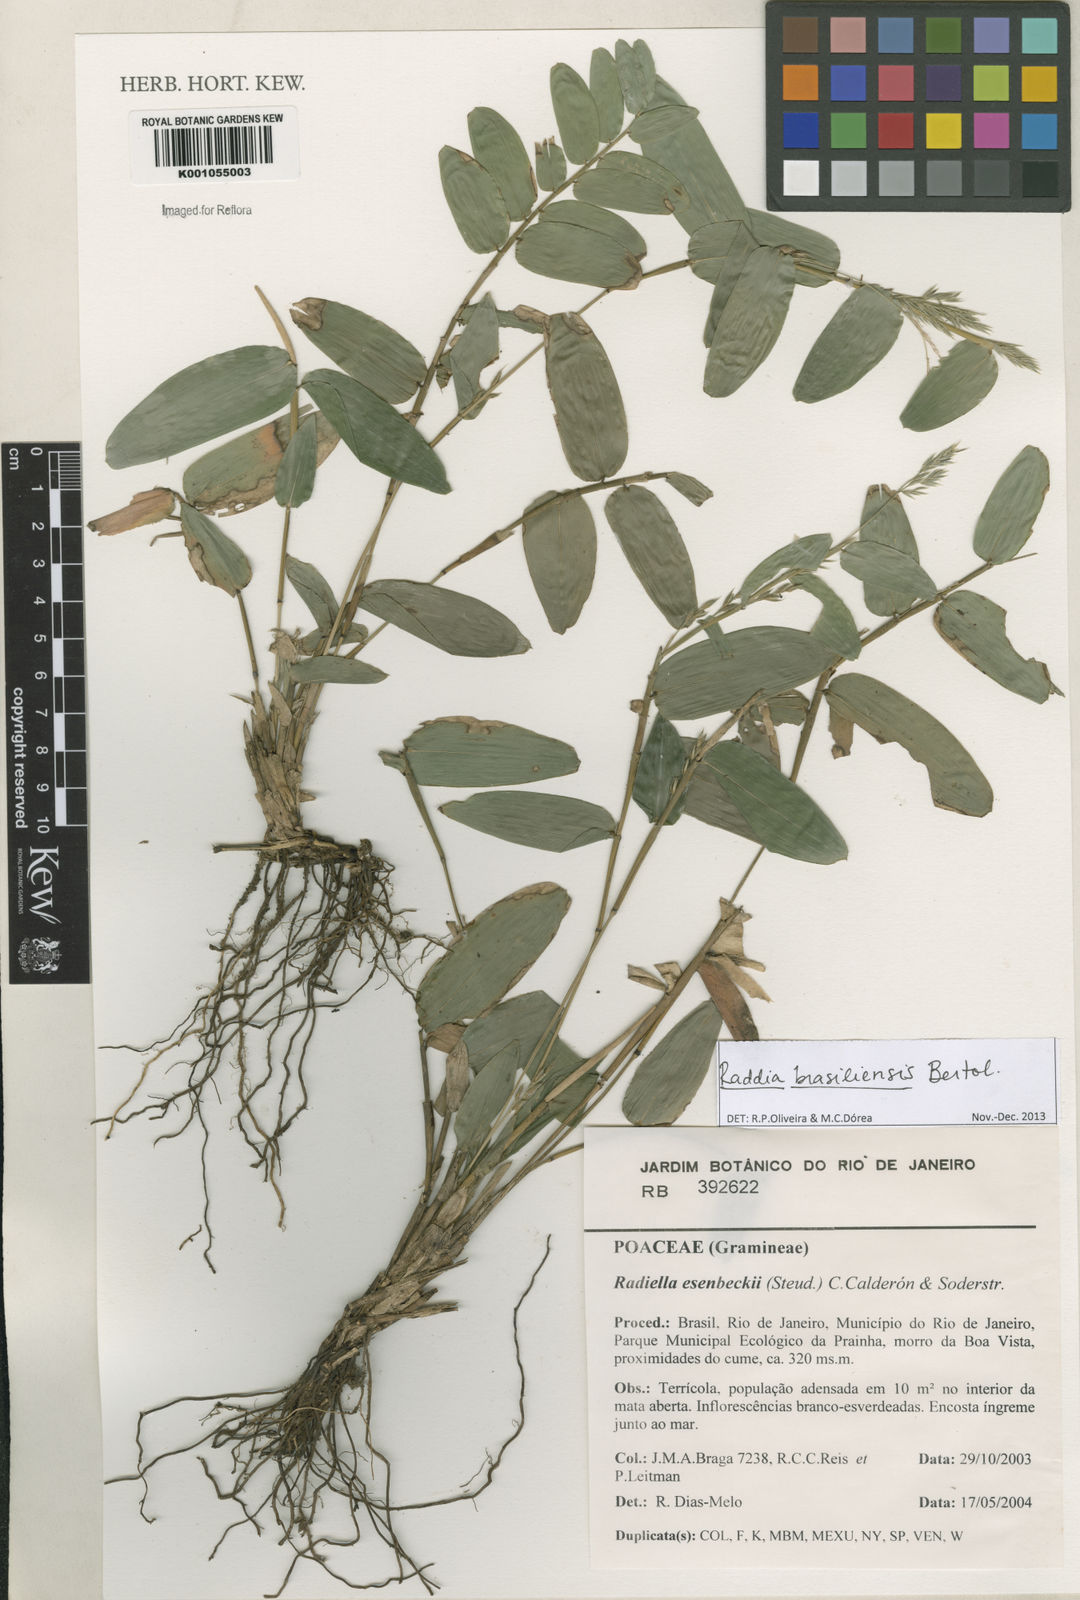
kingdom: Plantae
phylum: Tracheophyta
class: Liliopsida
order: Poales
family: Poaceae
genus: Raddia
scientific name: Raddia brasiliensis
